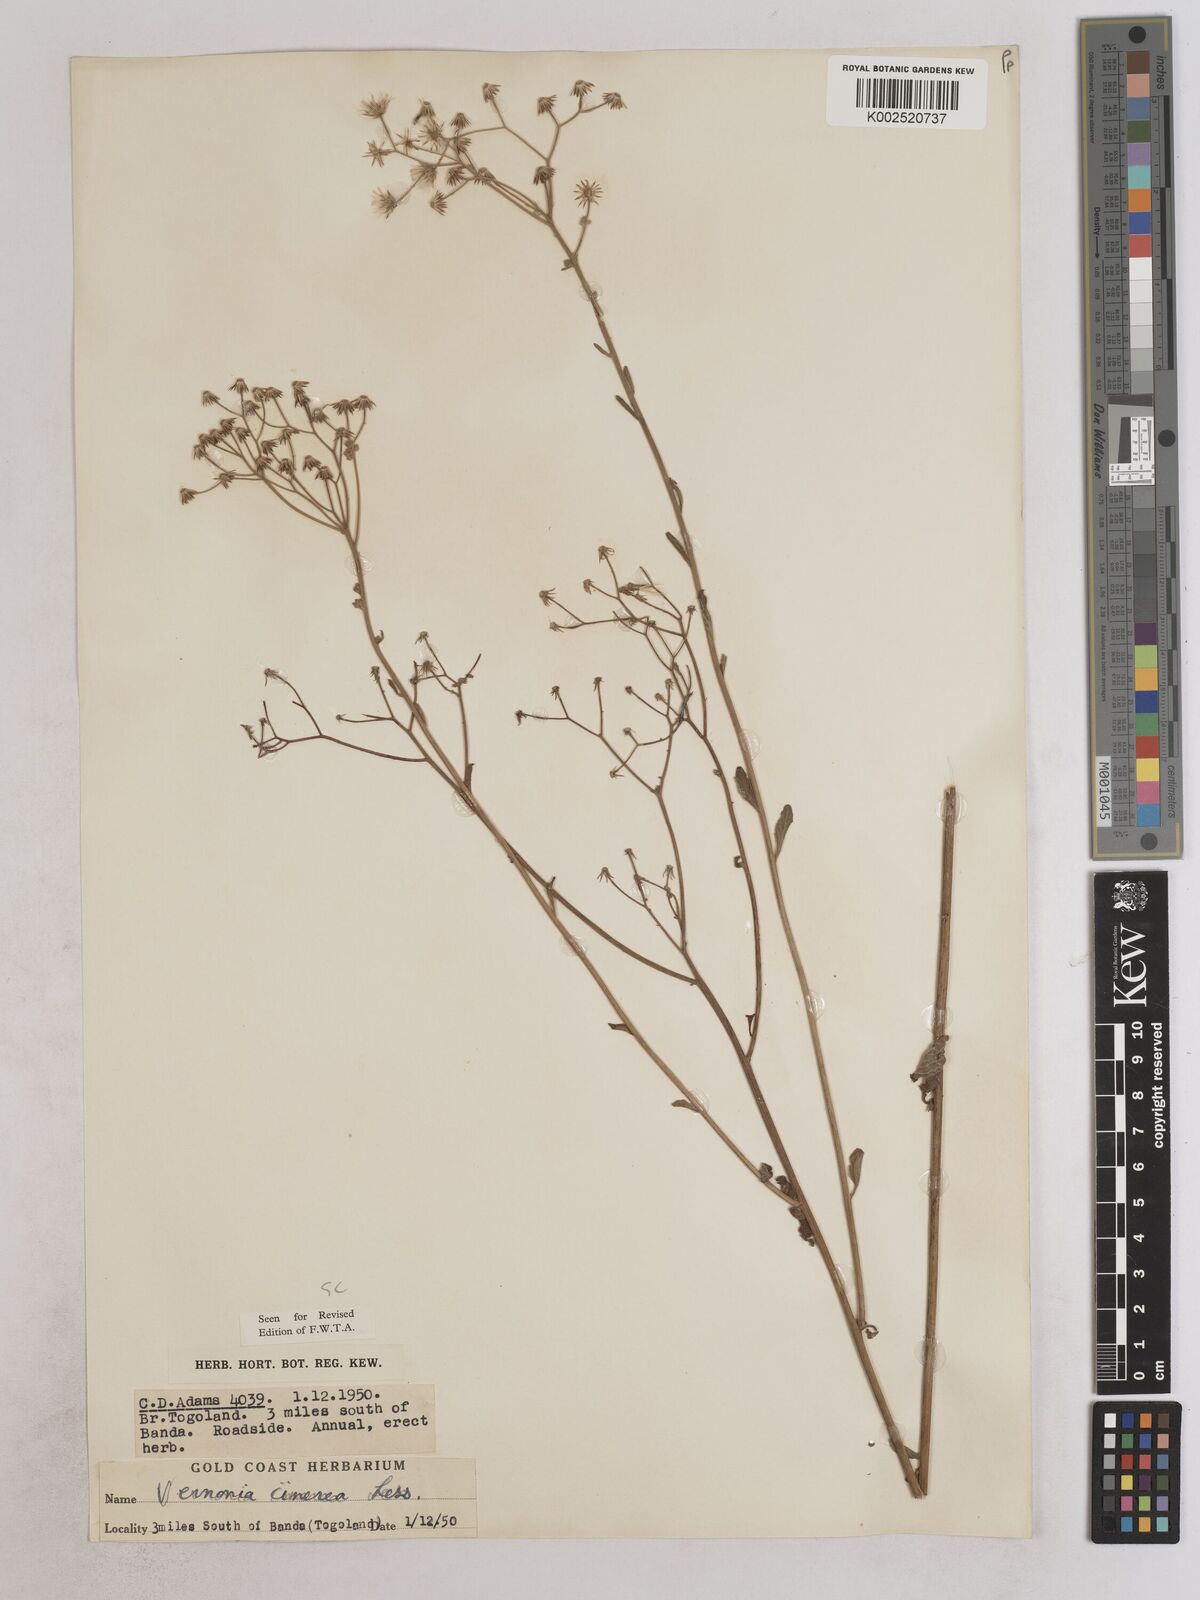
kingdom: Plantae
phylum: Tracheophyta
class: Magnoliopsida
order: Asterales
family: Asteraceae
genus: Cyanthillium
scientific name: Cyanthillium cinereum
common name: Little ironweed
